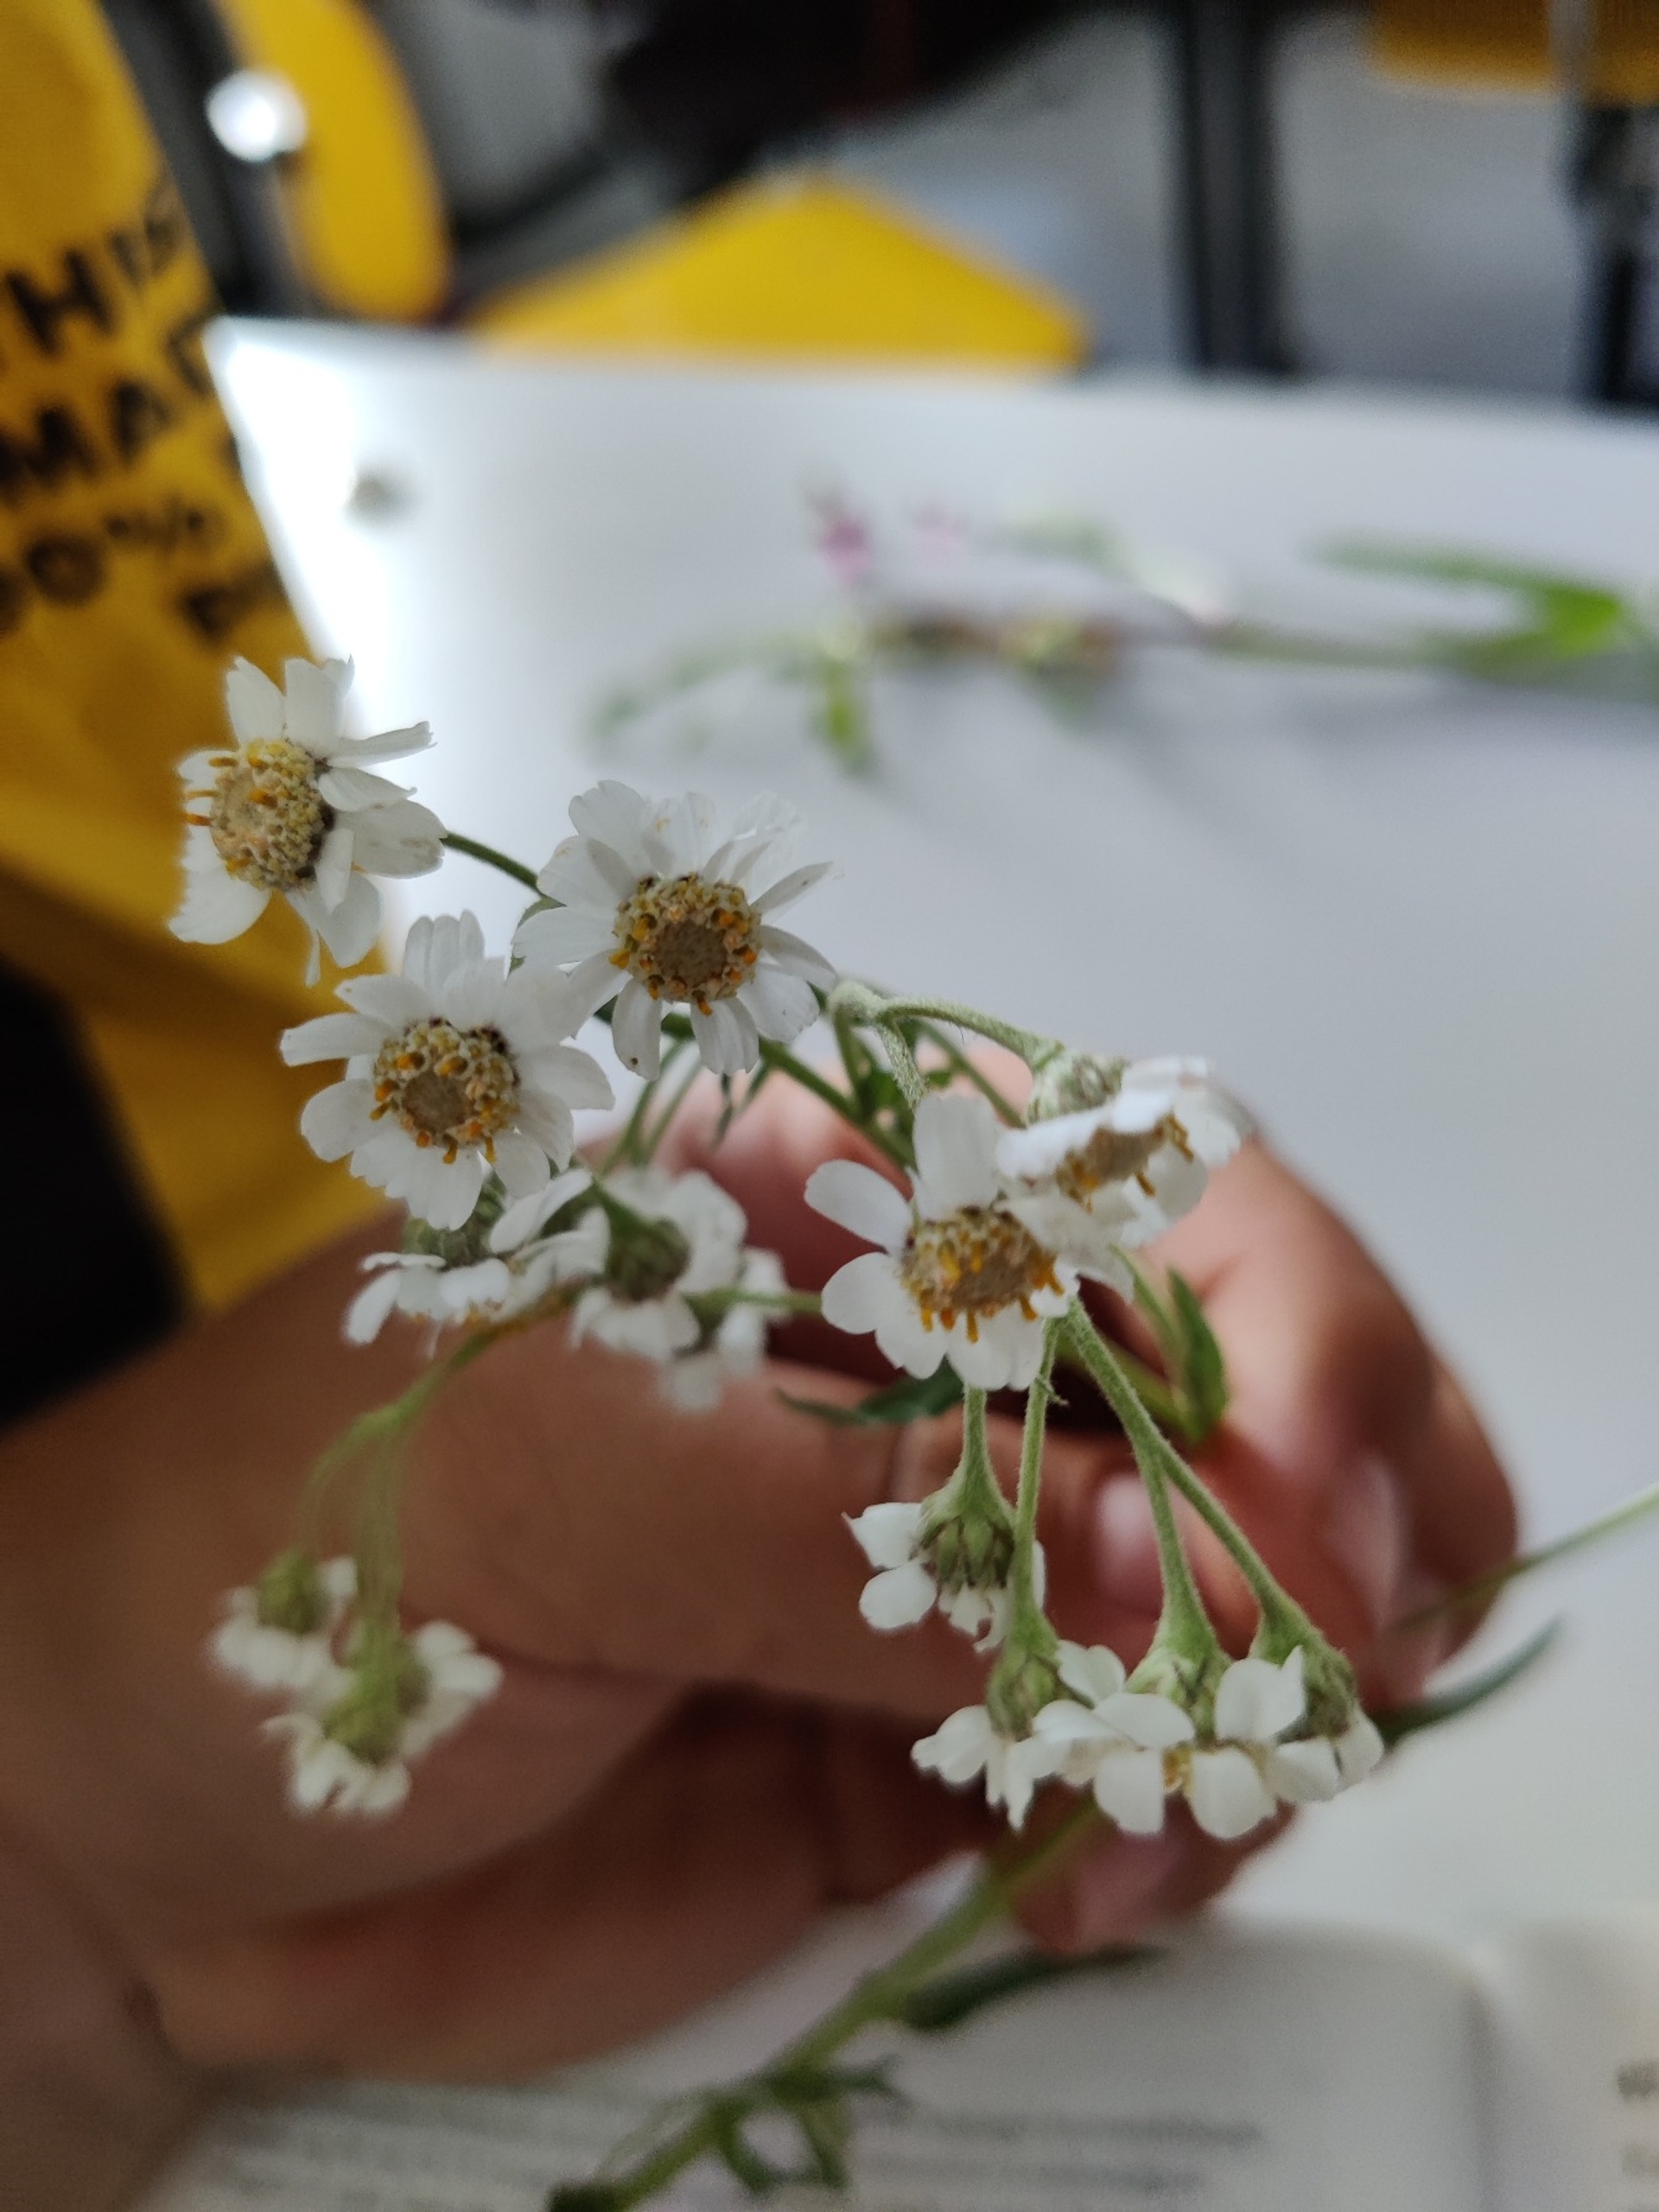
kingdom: Plantae
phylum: Tracheophyta
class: Magnoliopsida
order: Asterales
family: Asteraceae
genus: Achillea
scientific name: Achillea ptarmica
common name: Nyse-røllike
